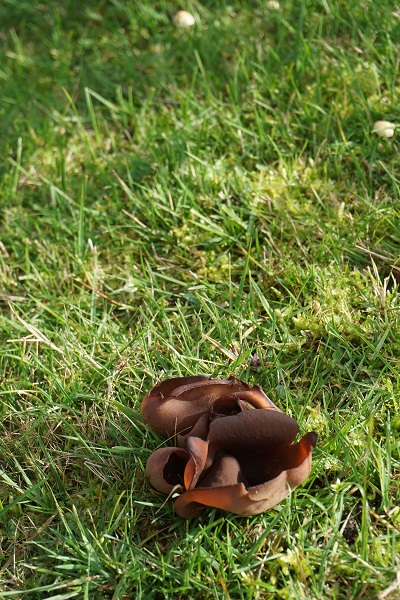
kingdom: Fungi
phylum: Ascomycota
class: Pezizomycetes
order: Pezizales
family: Pezizaceae
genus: Legaliana
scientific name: Legaliana badia
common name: leverbrun bægersvamp
